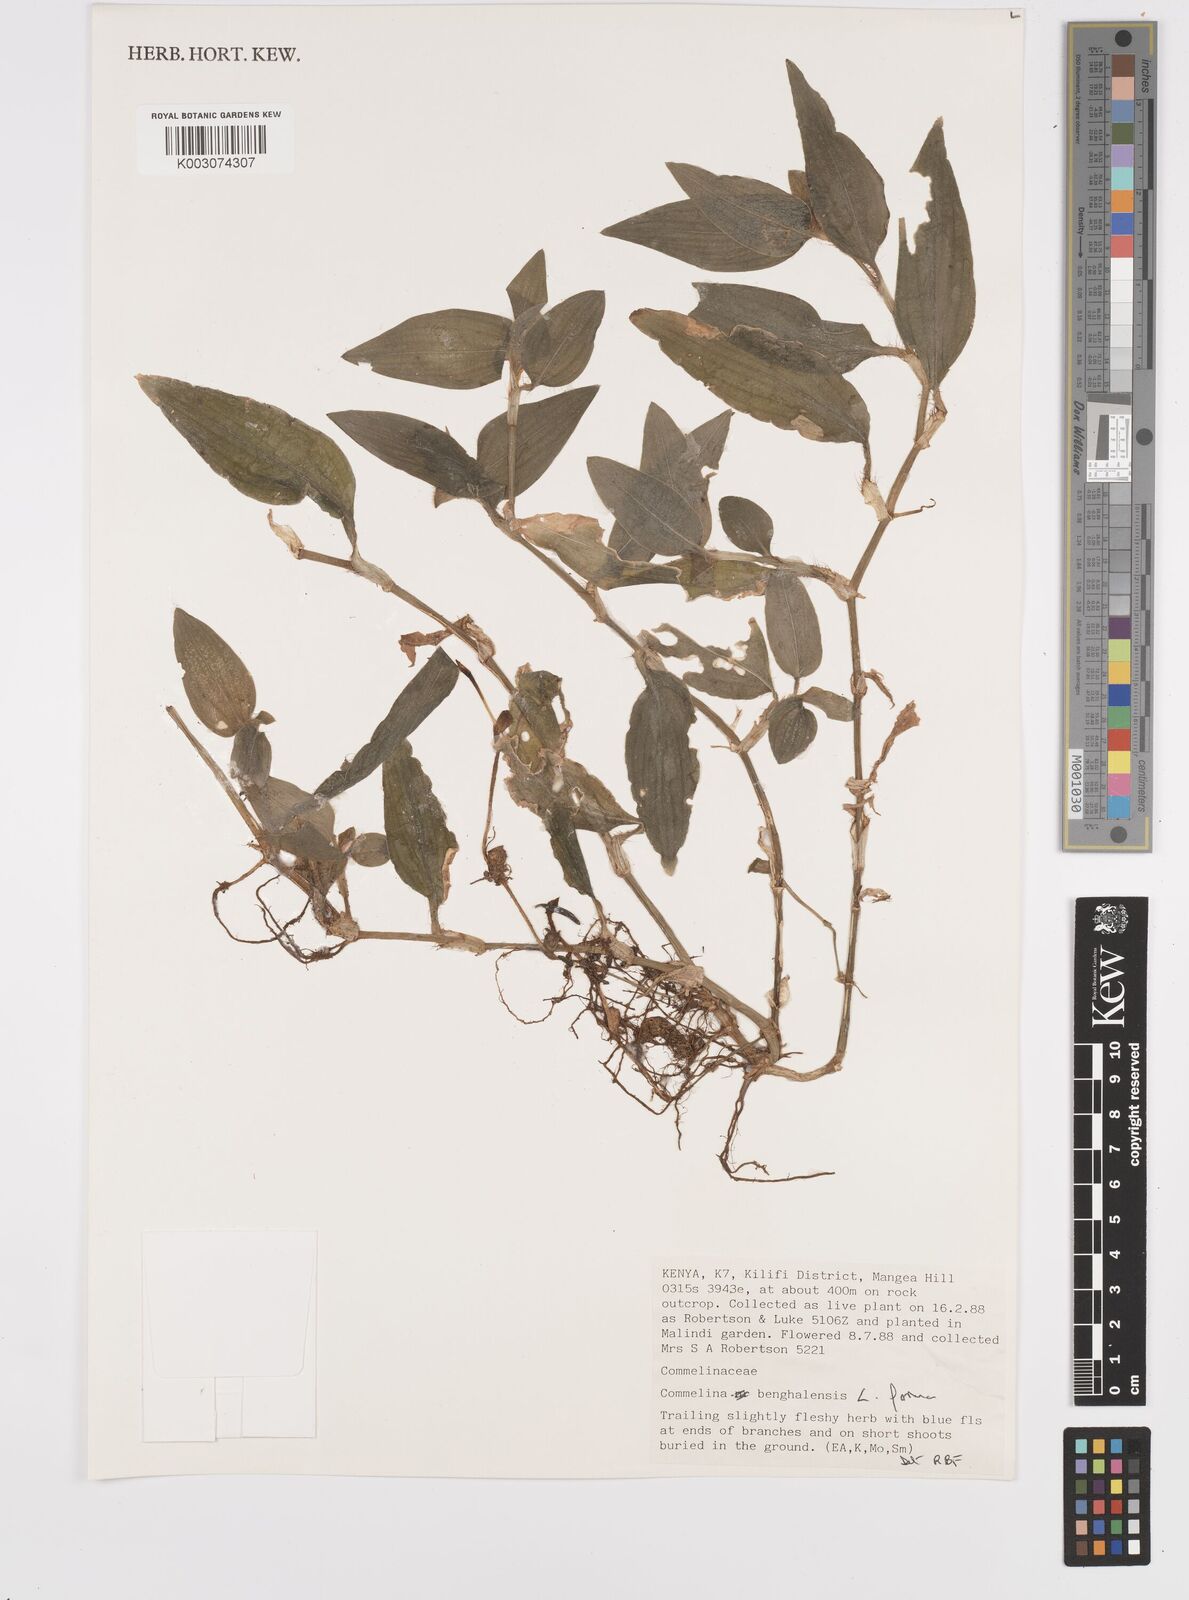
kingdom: Plantae
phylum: Tracheophyta
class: Liliopsida
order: Commelinales
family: Commelinaceae
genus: Commelina
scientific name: Commelina benghalensis
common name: Jio
